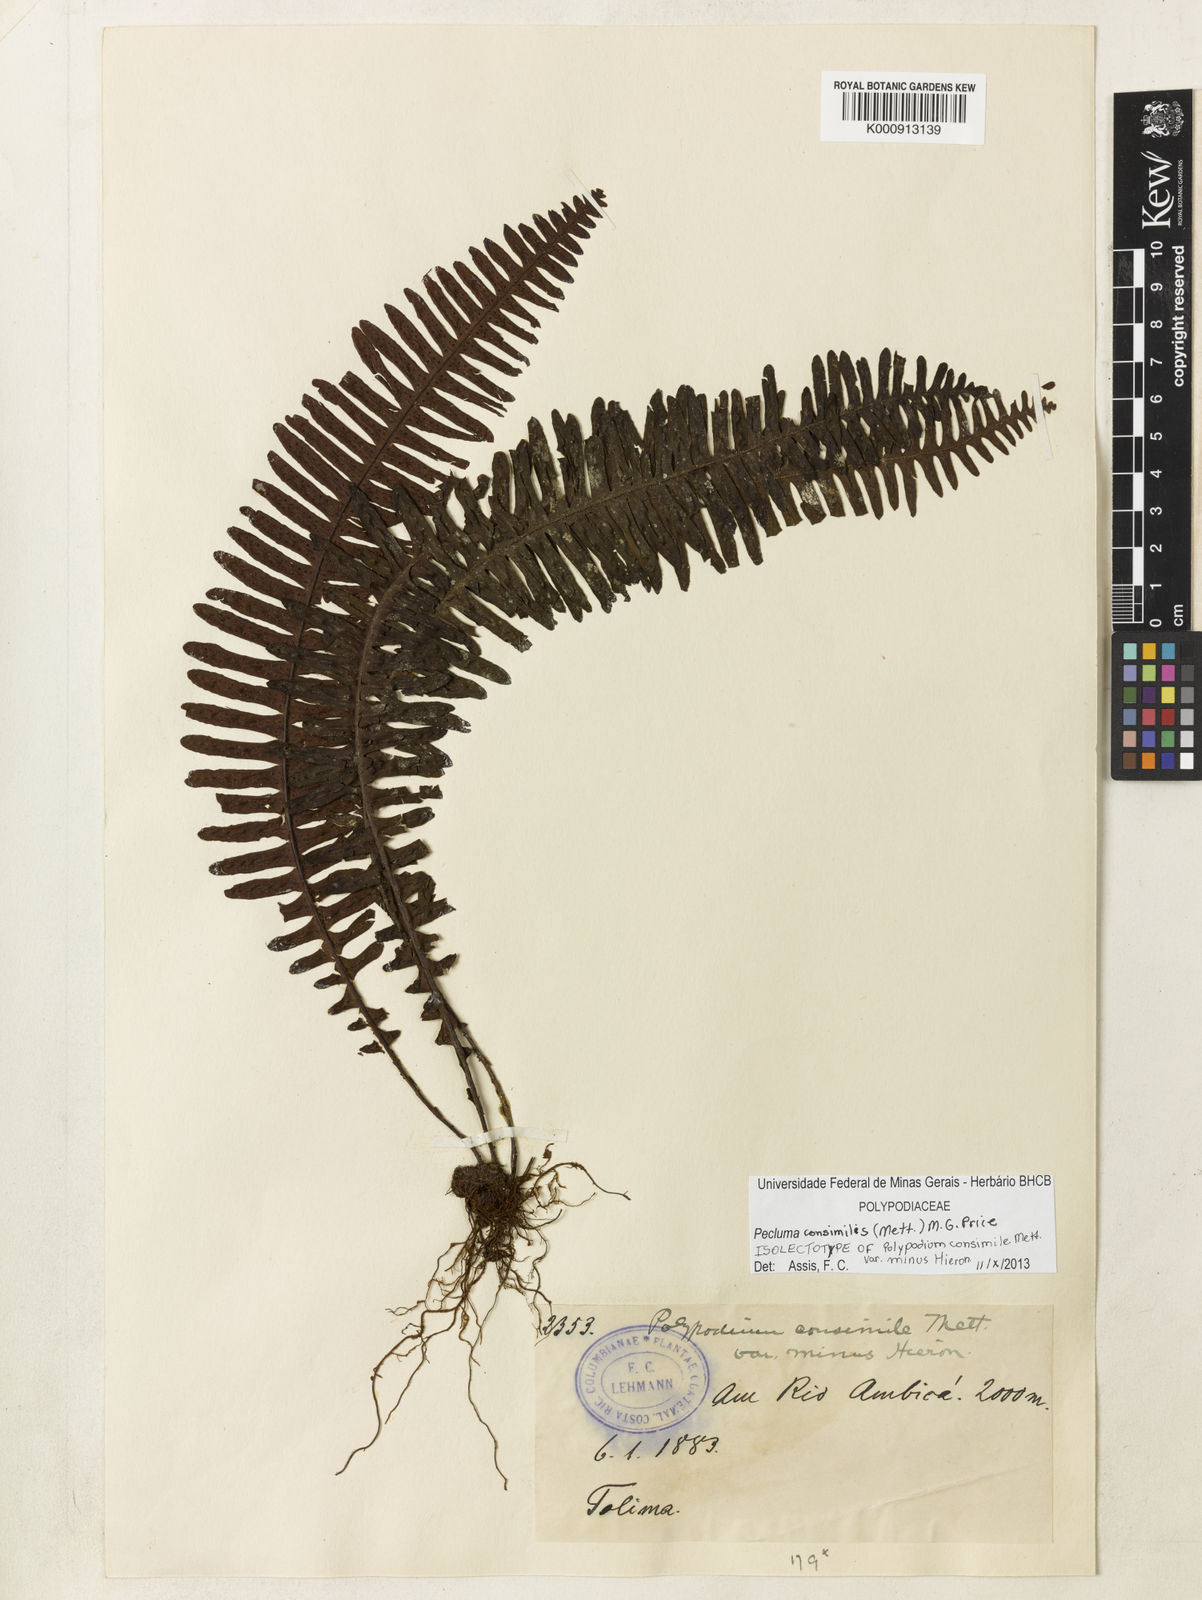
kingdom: Plantae
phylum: Tracheophyta
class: Polypodiopsida
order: Polypodiales
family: Polypodiaceae
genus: Pecluma
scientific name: Pecluma consimilis
